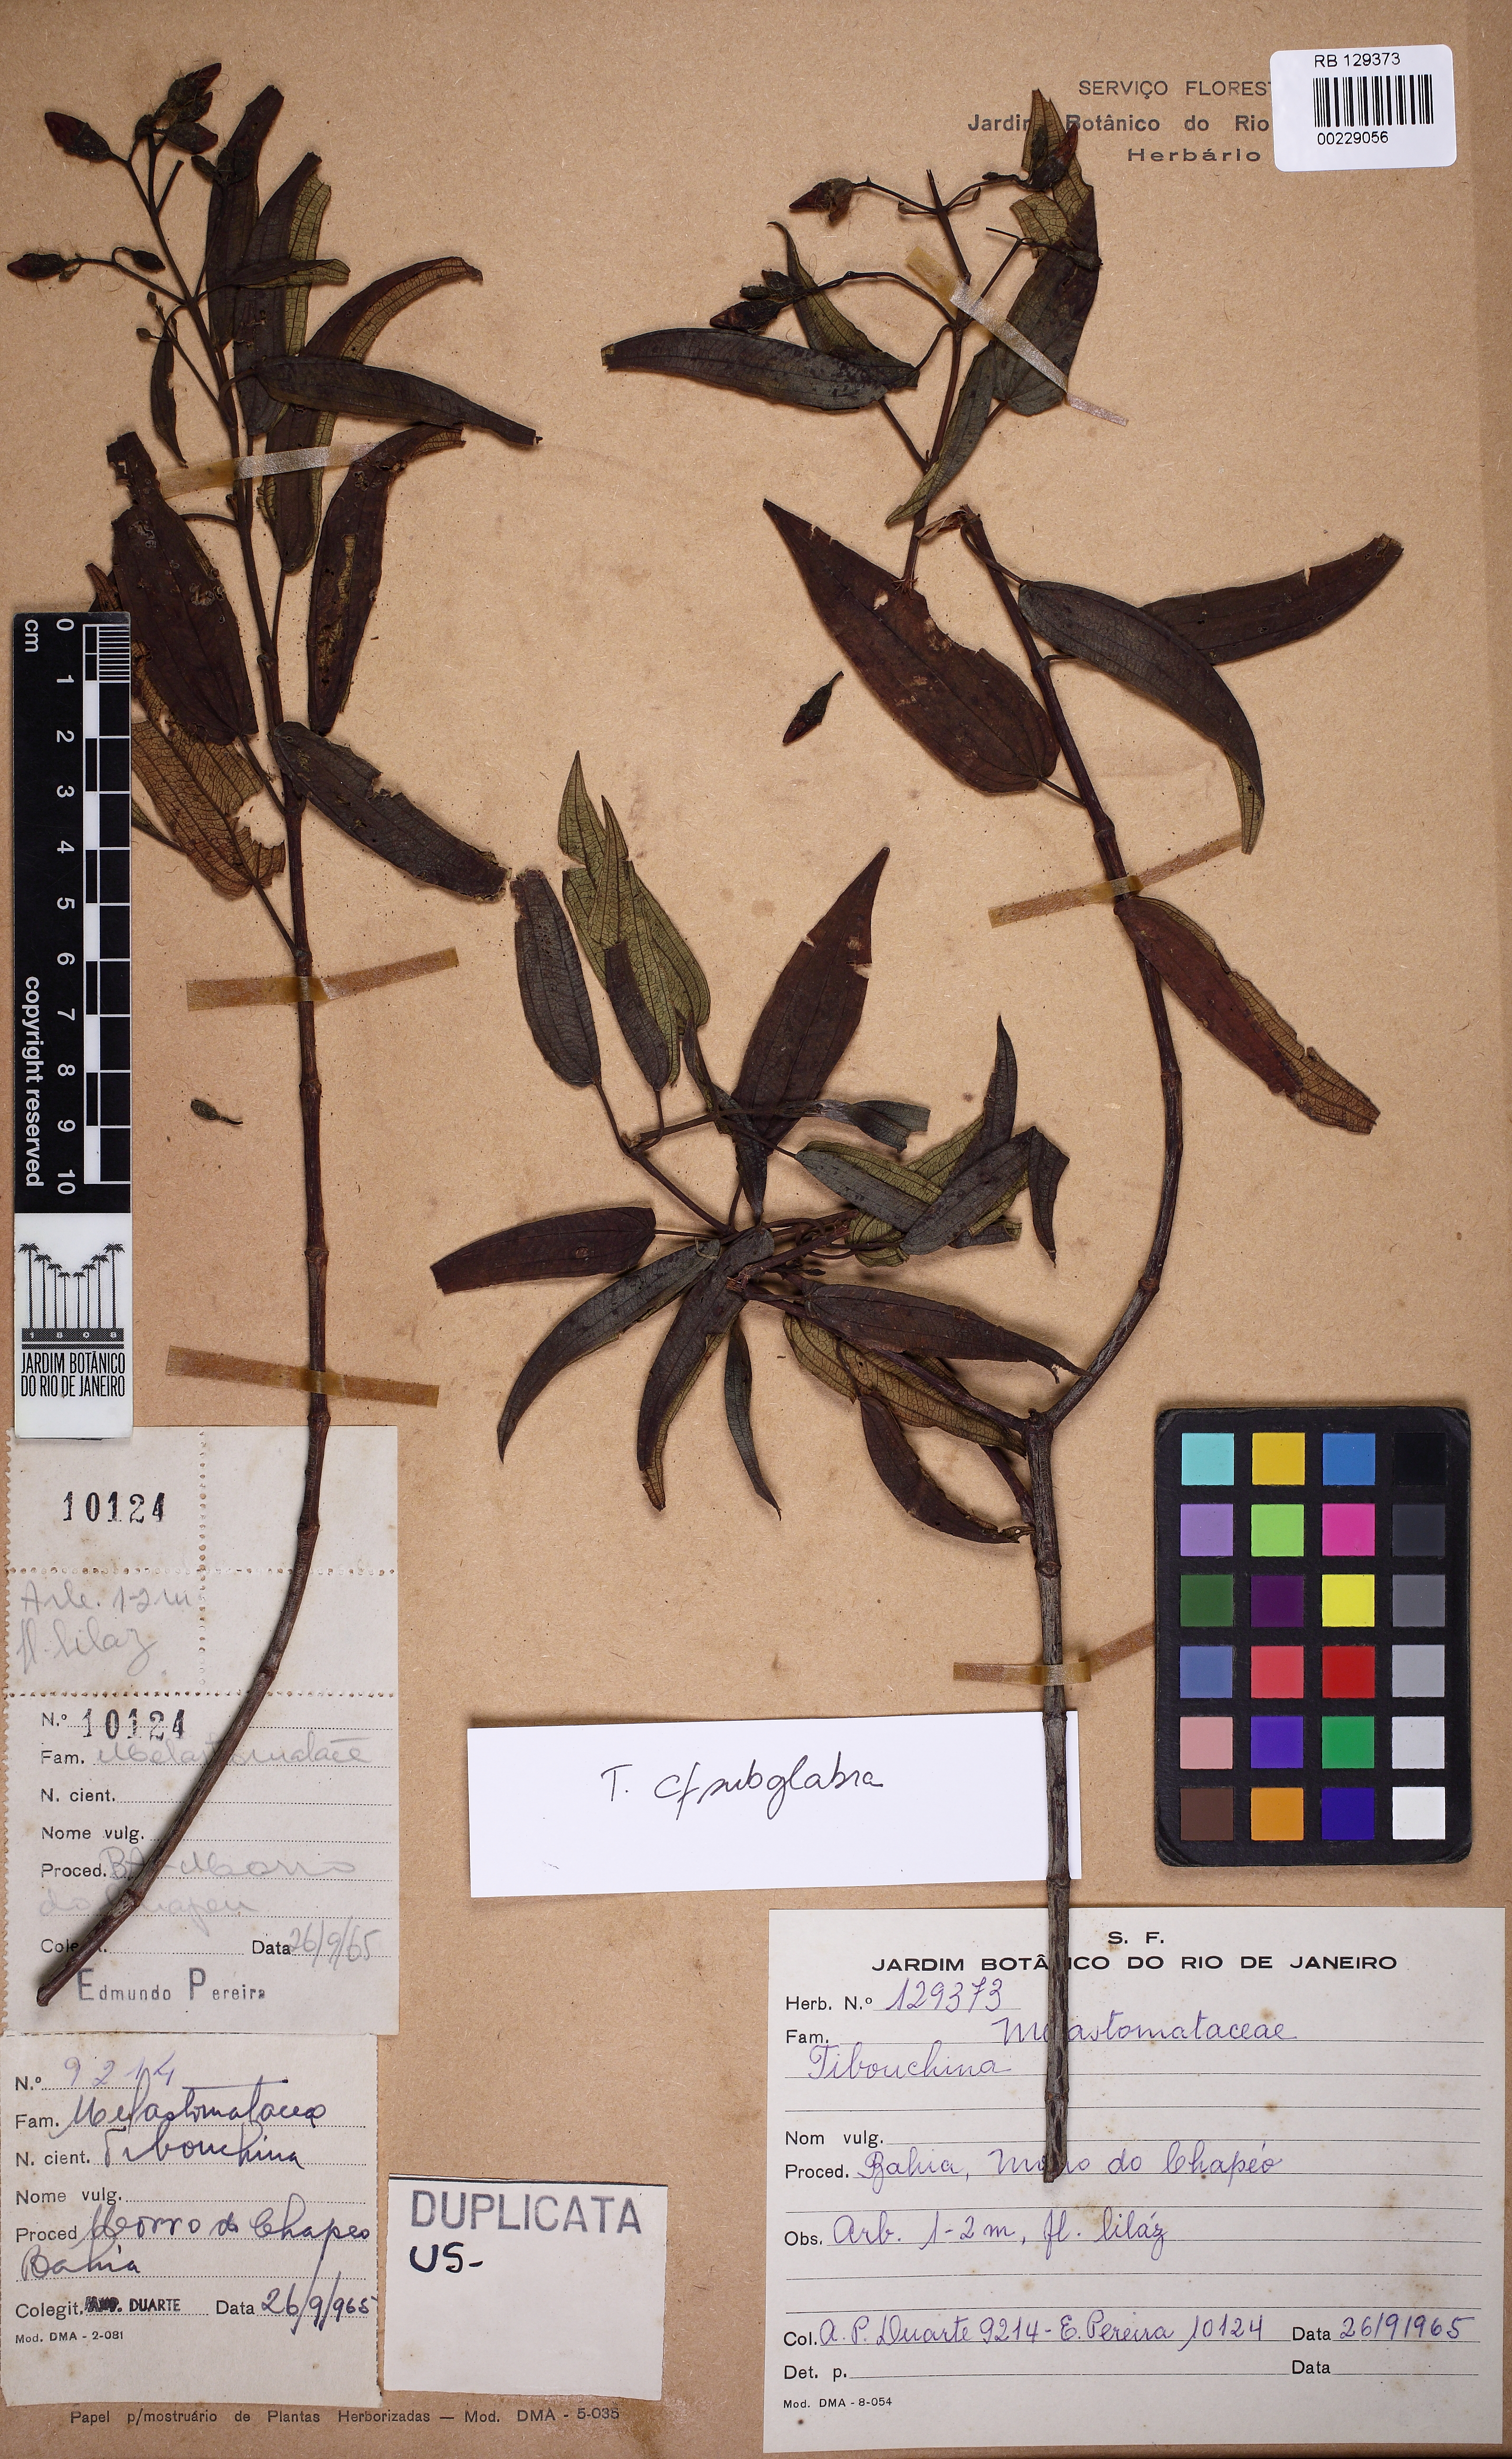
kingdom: Plantae
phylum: Tracheophyta
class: Magnoliopsida
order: Myrtales
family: Melastomataceae
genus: Tibouchina
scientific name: Tibouchina
